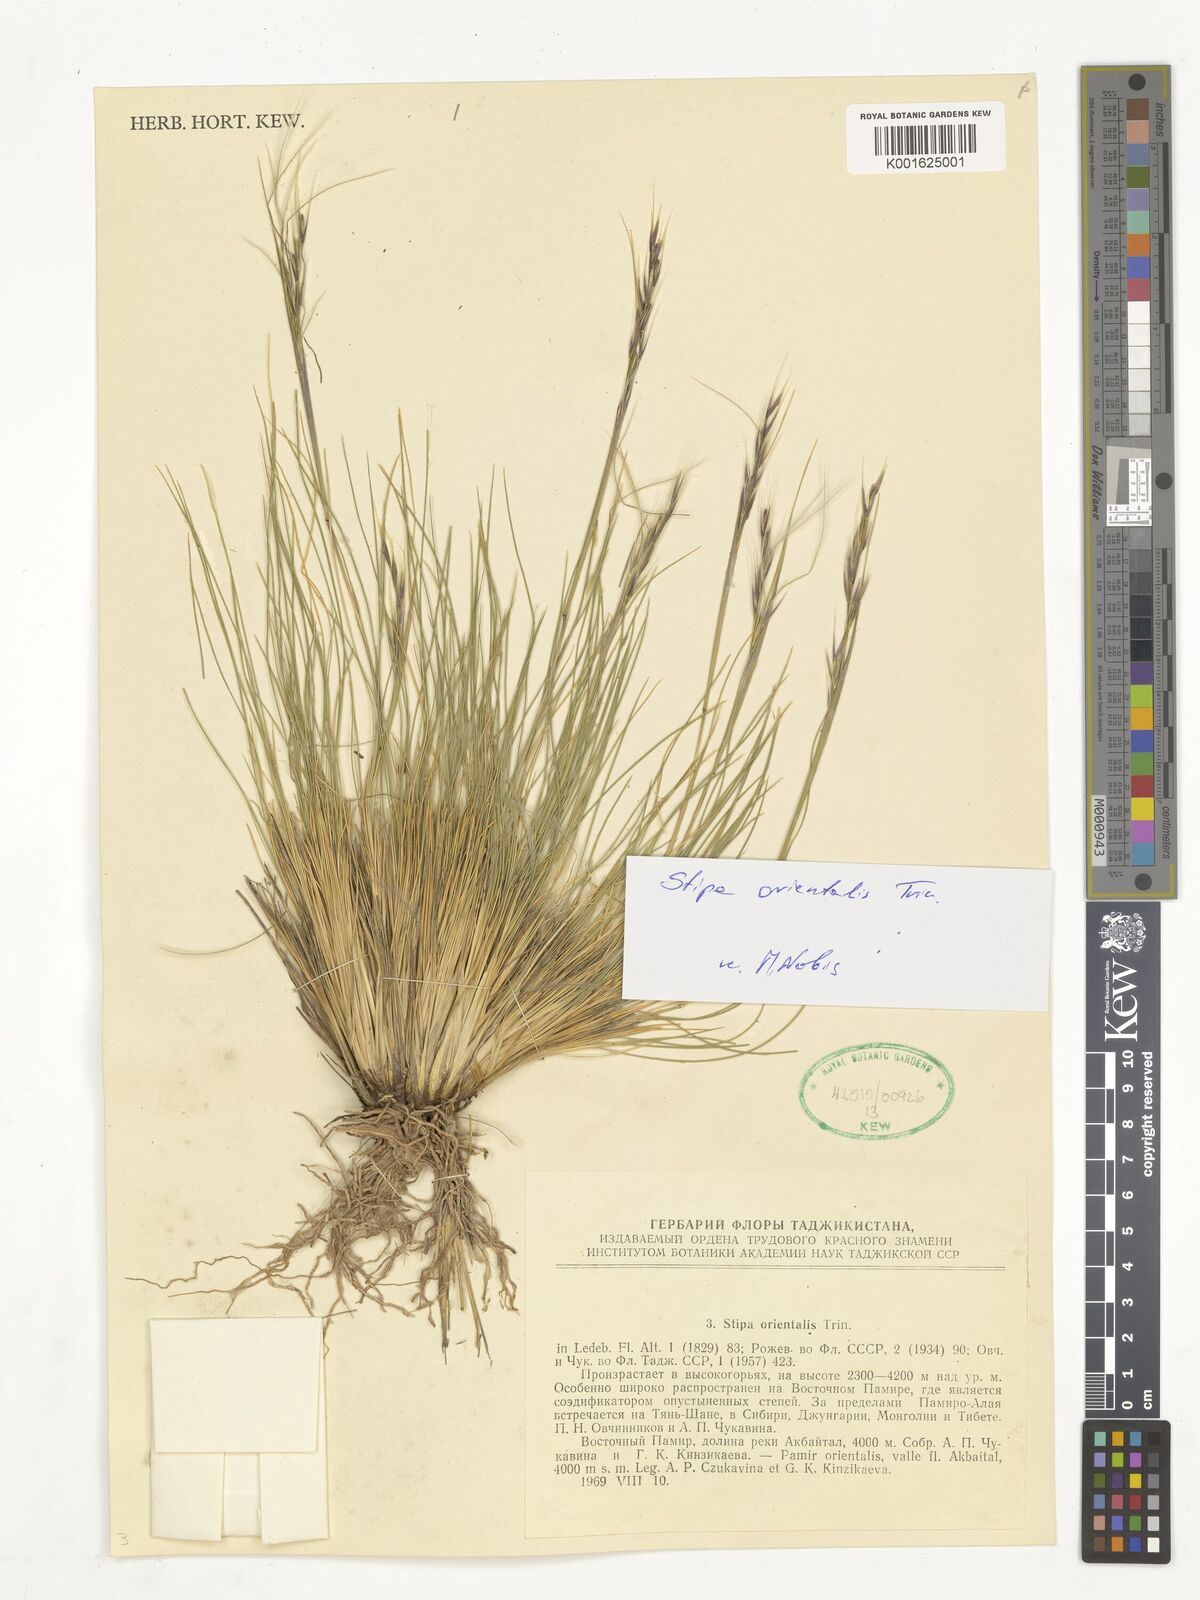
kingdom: Plantae
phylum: Tracheophyta
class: Liliopsida
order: Poales
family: Poaceae
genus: Stipa
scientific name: Stipa orientalis
